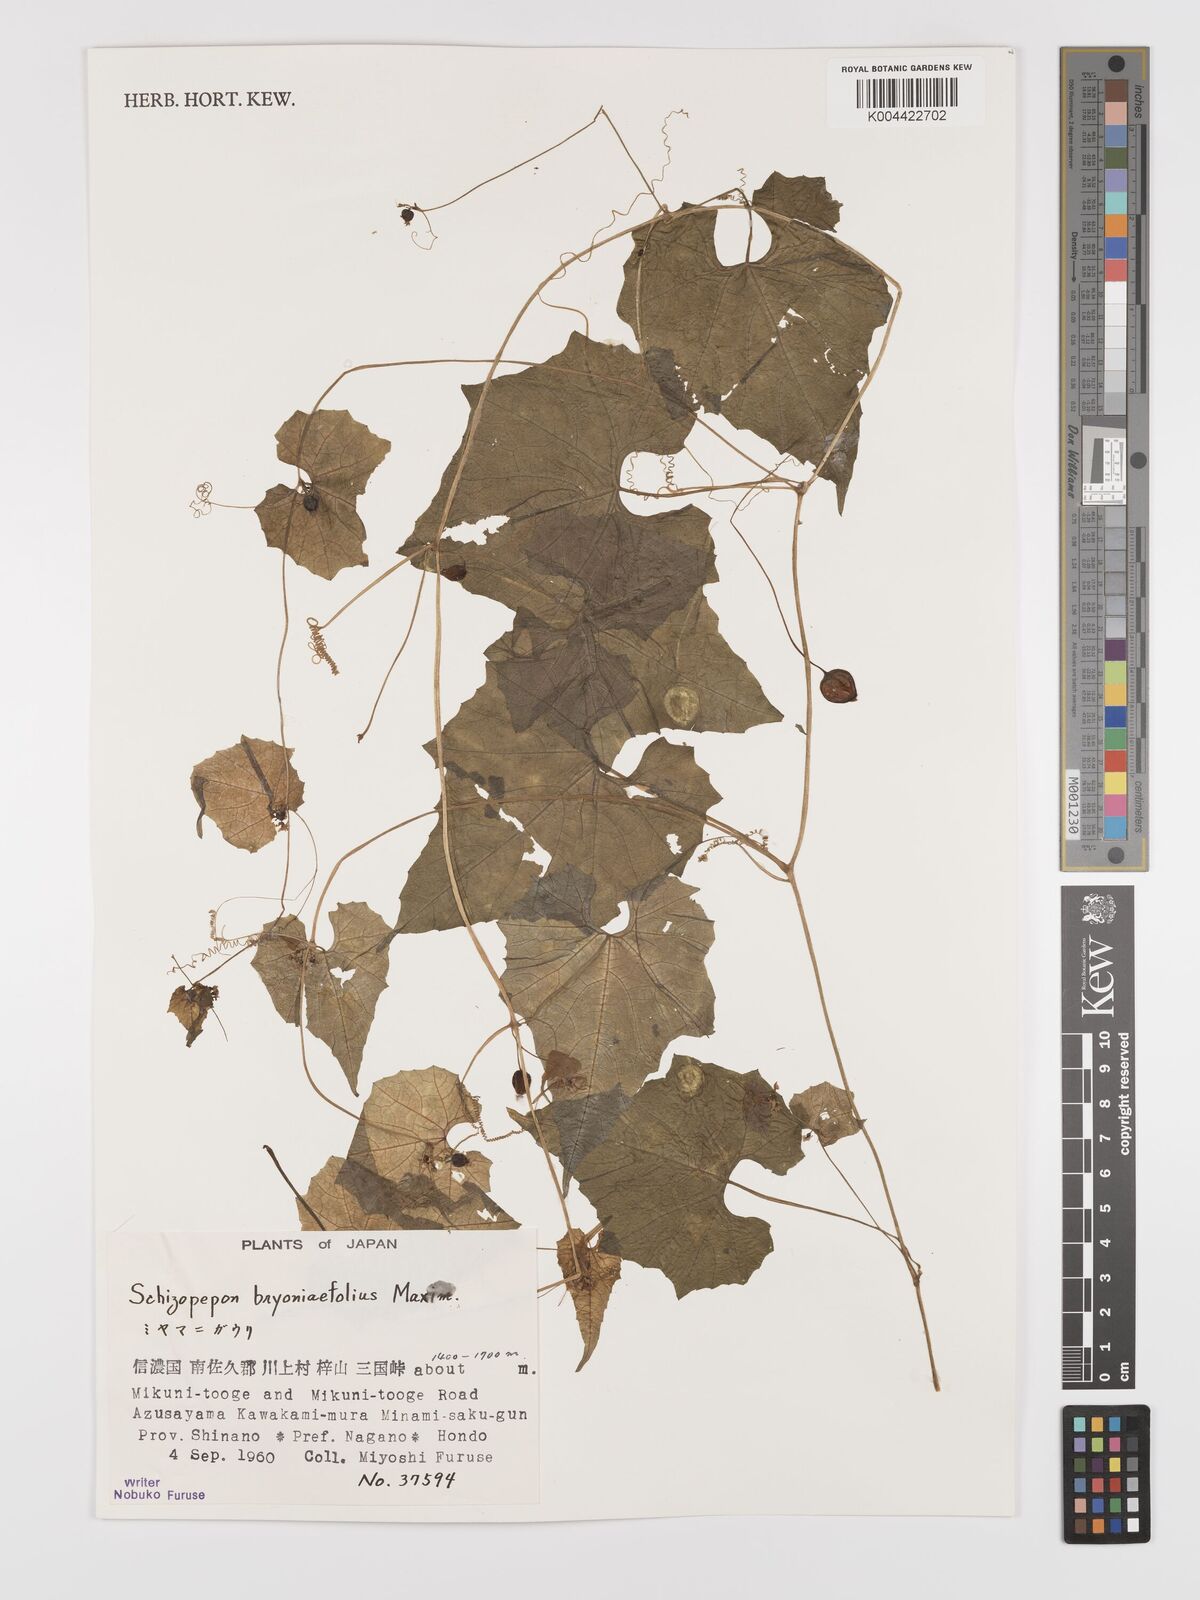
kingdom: Plantae
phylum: Tracheophyta
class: Magnoliopsida
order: Cucurbitales
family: Cucurbitaceae
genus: Schizopepon
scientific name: Schizopepon bryoniifolius
